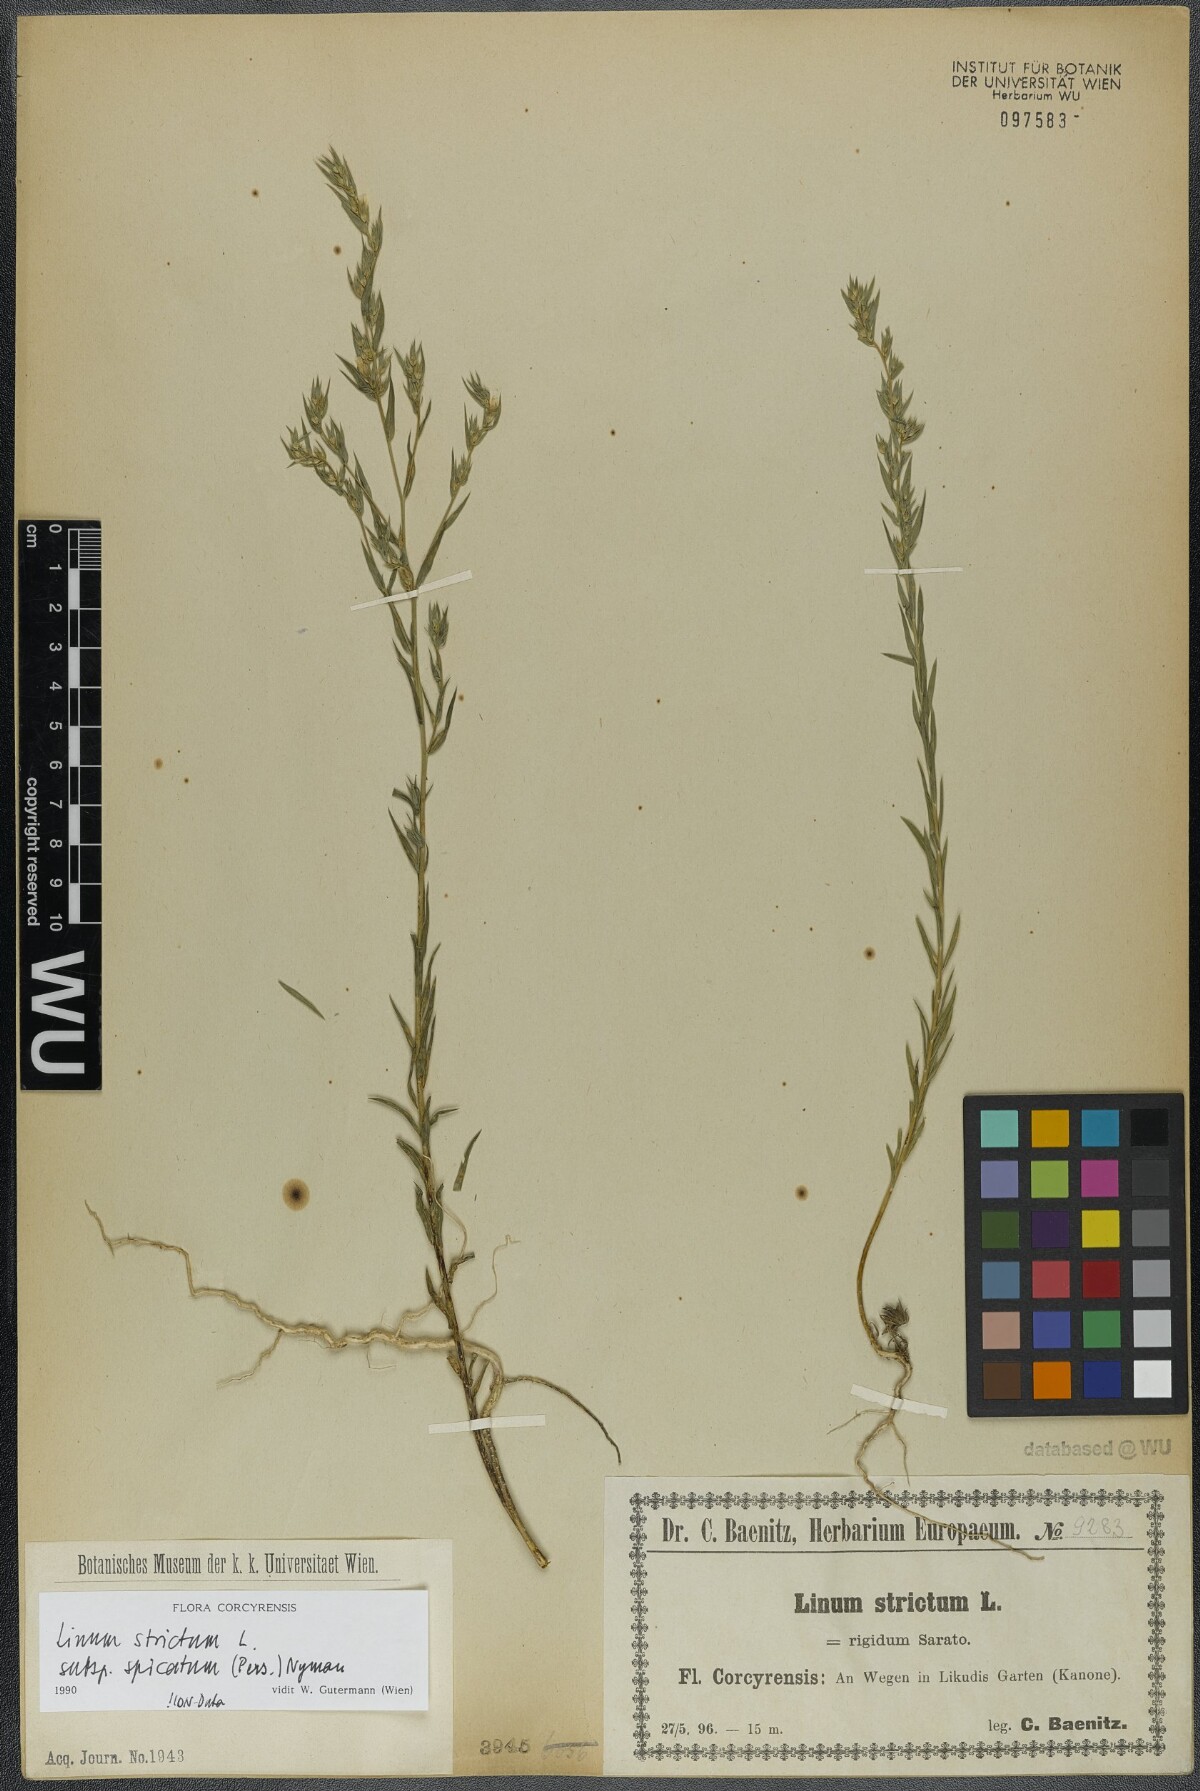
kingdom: Plantae
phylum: Tracheophyta
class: Magnoliopsida
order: Malpighiales
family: Linaceae
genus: Linum
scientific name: Linum strictum
